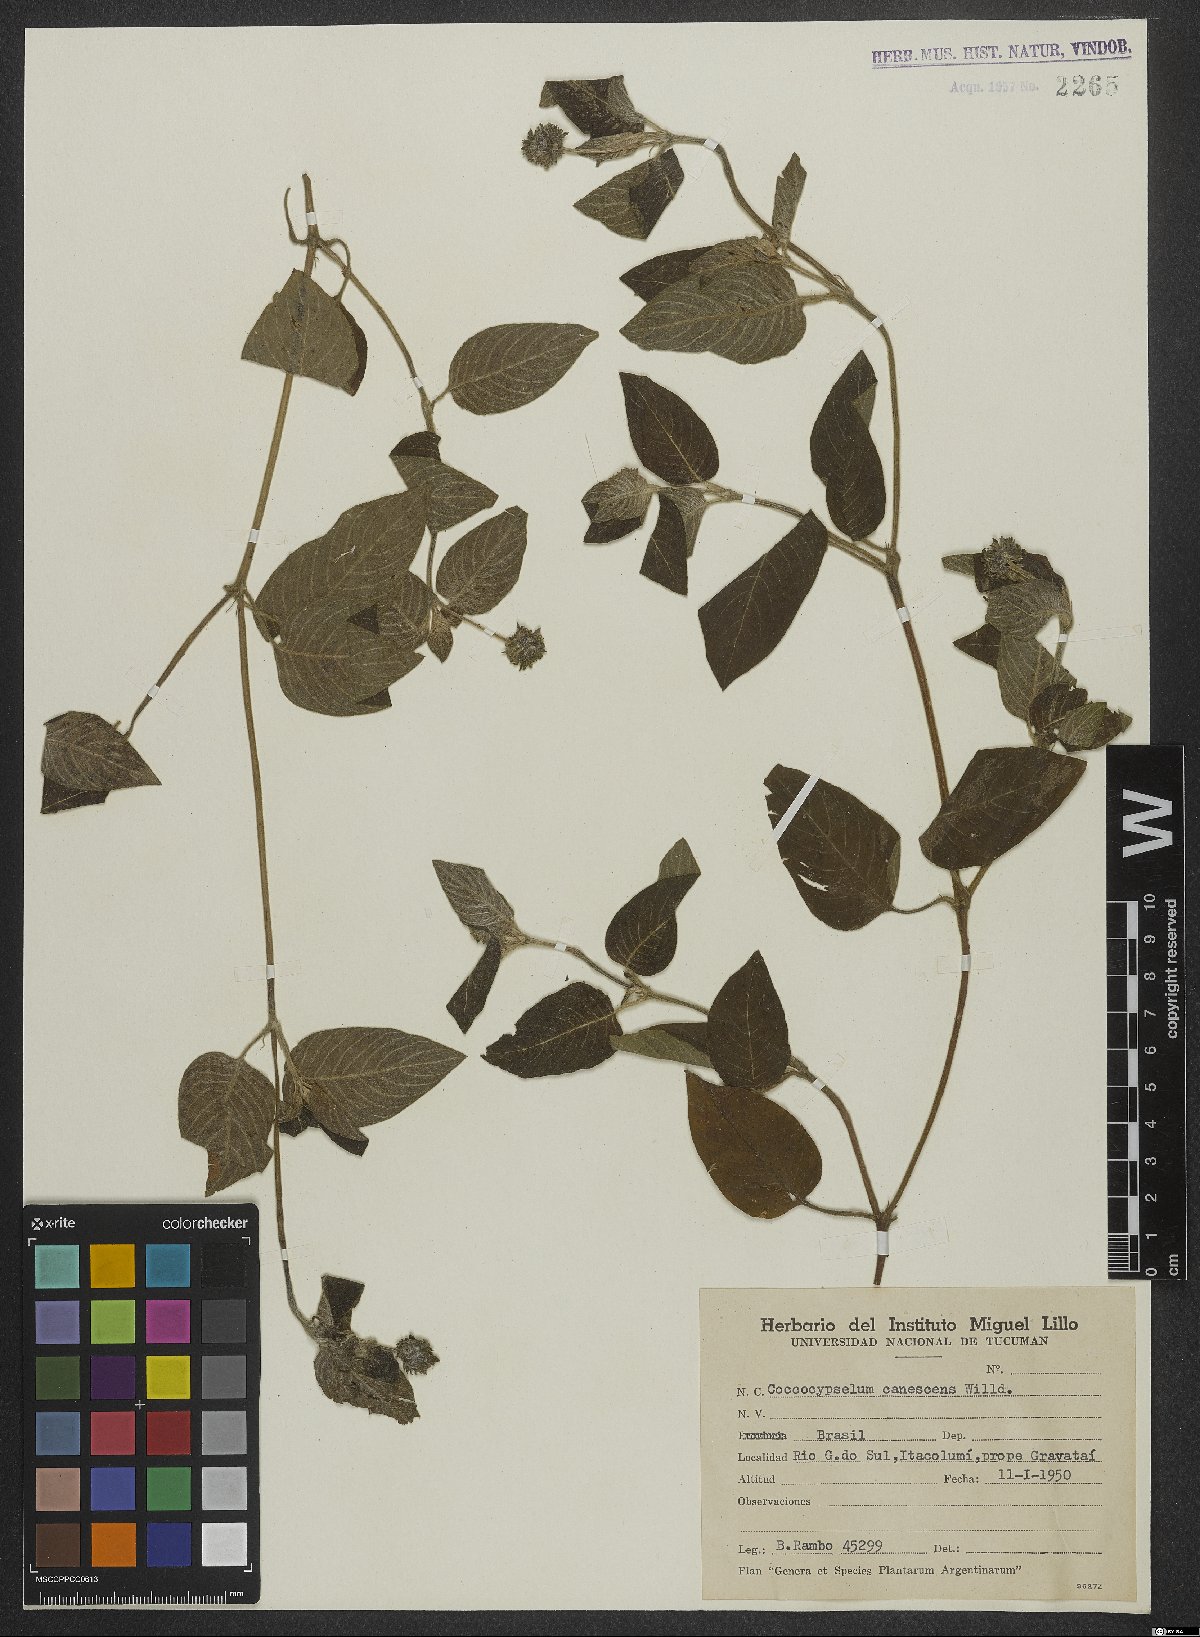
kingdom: Plantae
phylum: Tracheophyta
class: Magnoliopsida
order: Gentianales
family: Rubiaceae
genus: Coccocypselum
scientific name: Coccocypselum lanceolatum
